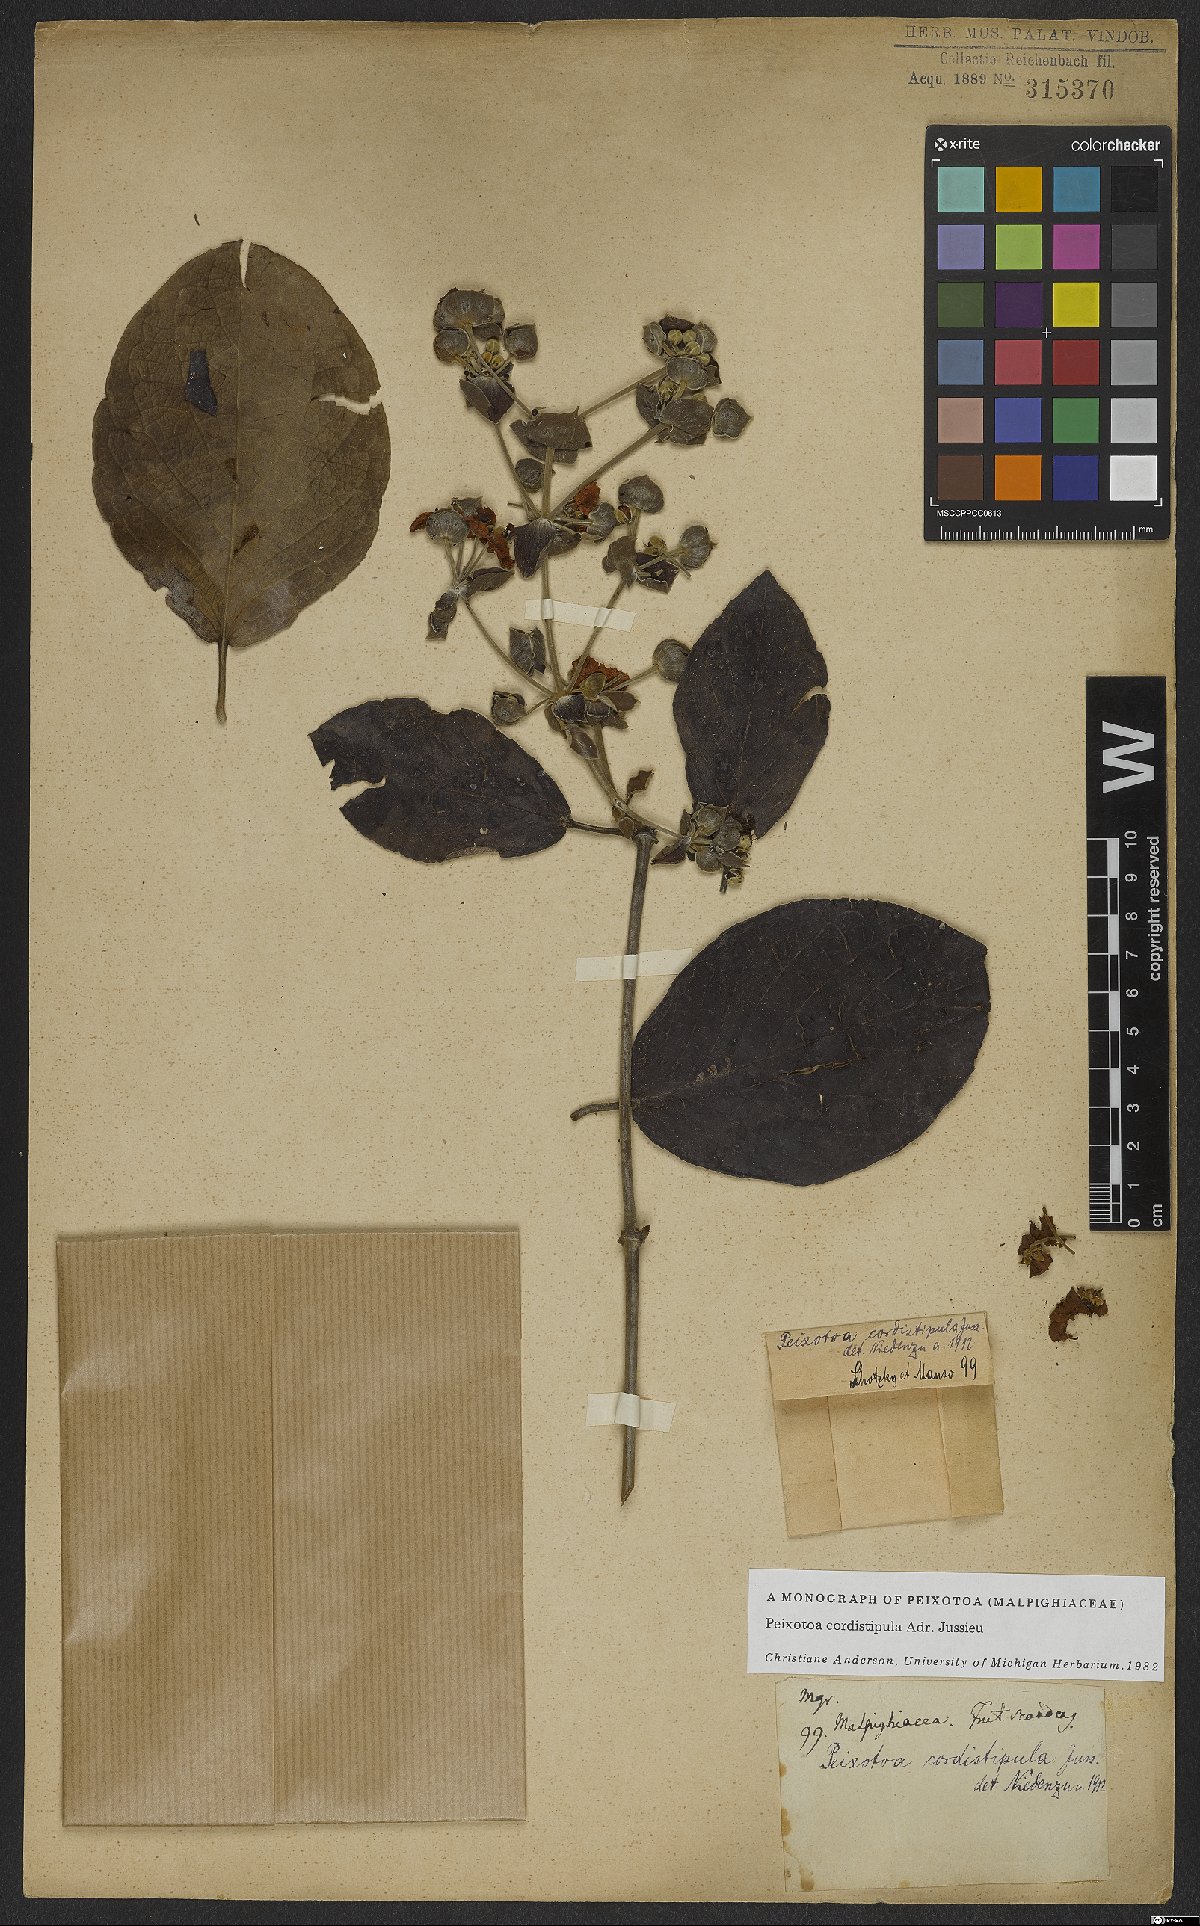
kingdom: Plantae
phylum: Tracheophyta
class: Magnoliopsida
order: Malpighiales
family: Malpighiaceae
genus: Peixotoa
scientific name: Peixotoa cordistipula
